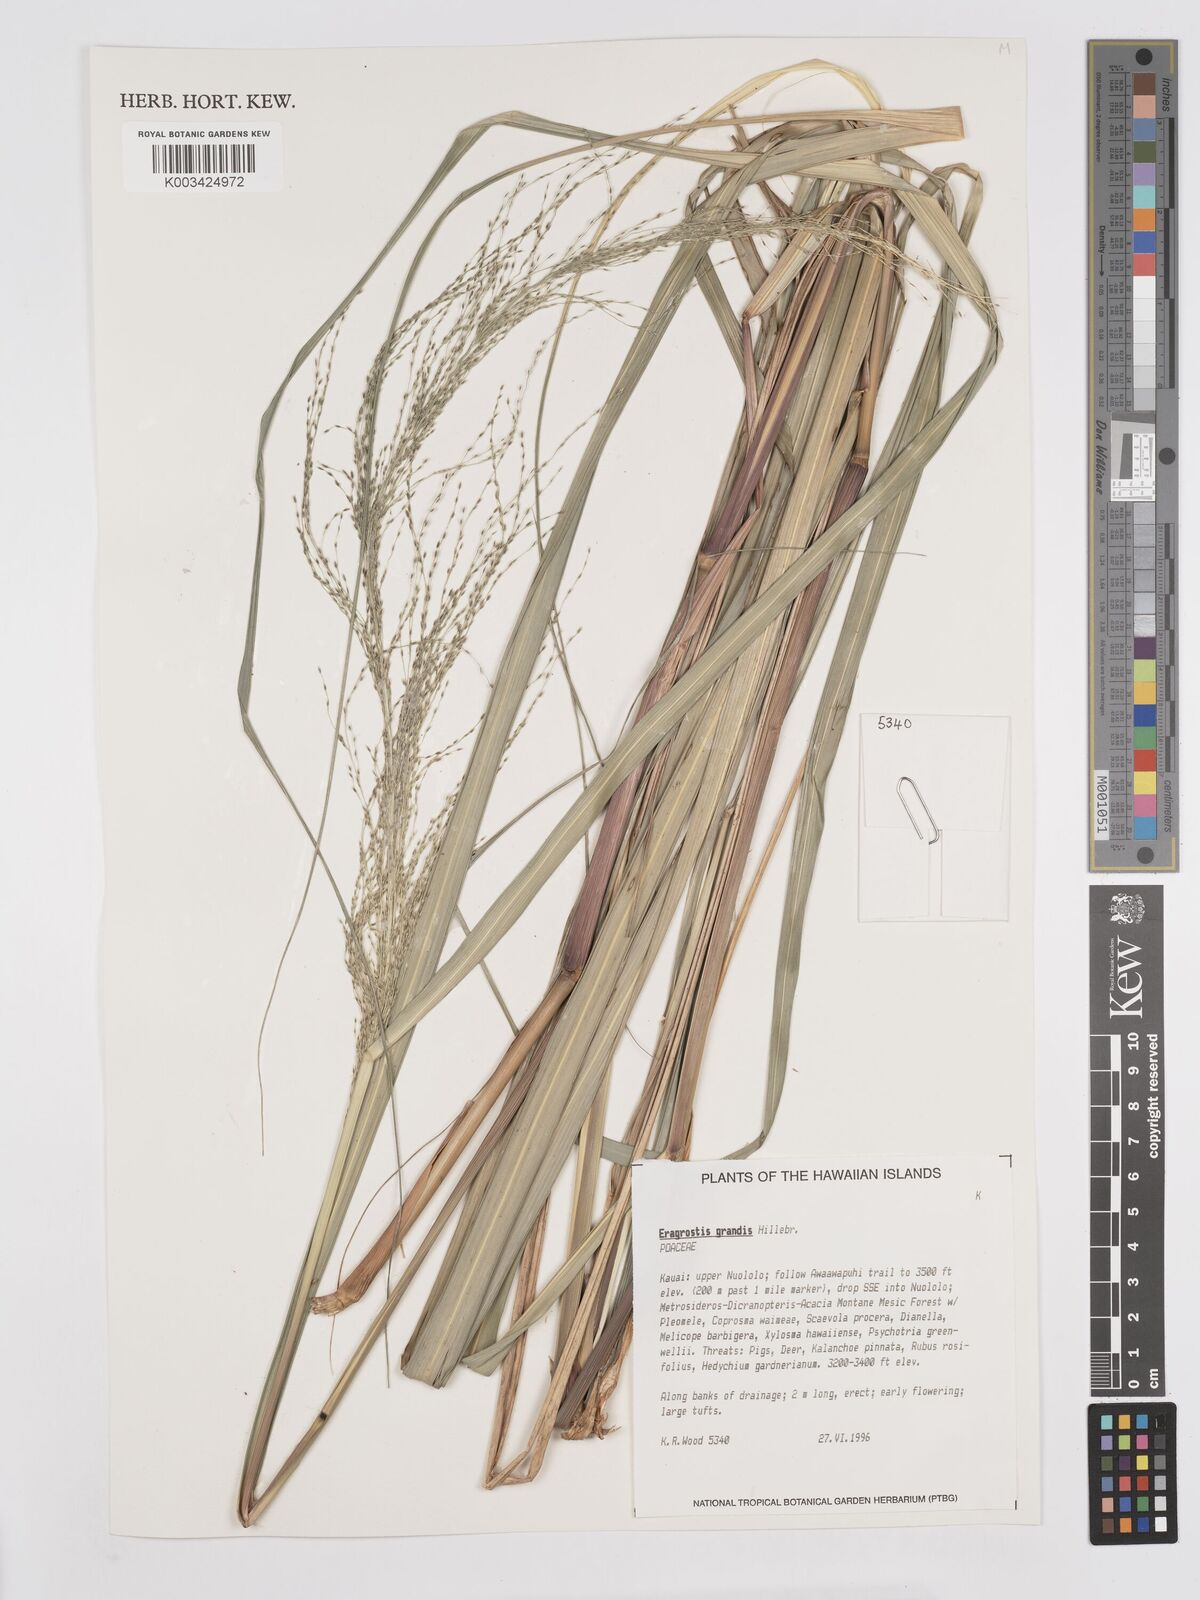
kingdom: Plantae
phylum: Tracheophyta
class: Liliopsida
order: Poales
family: Poaceae
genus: Eragrostis
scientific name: Eragrostis grandis
